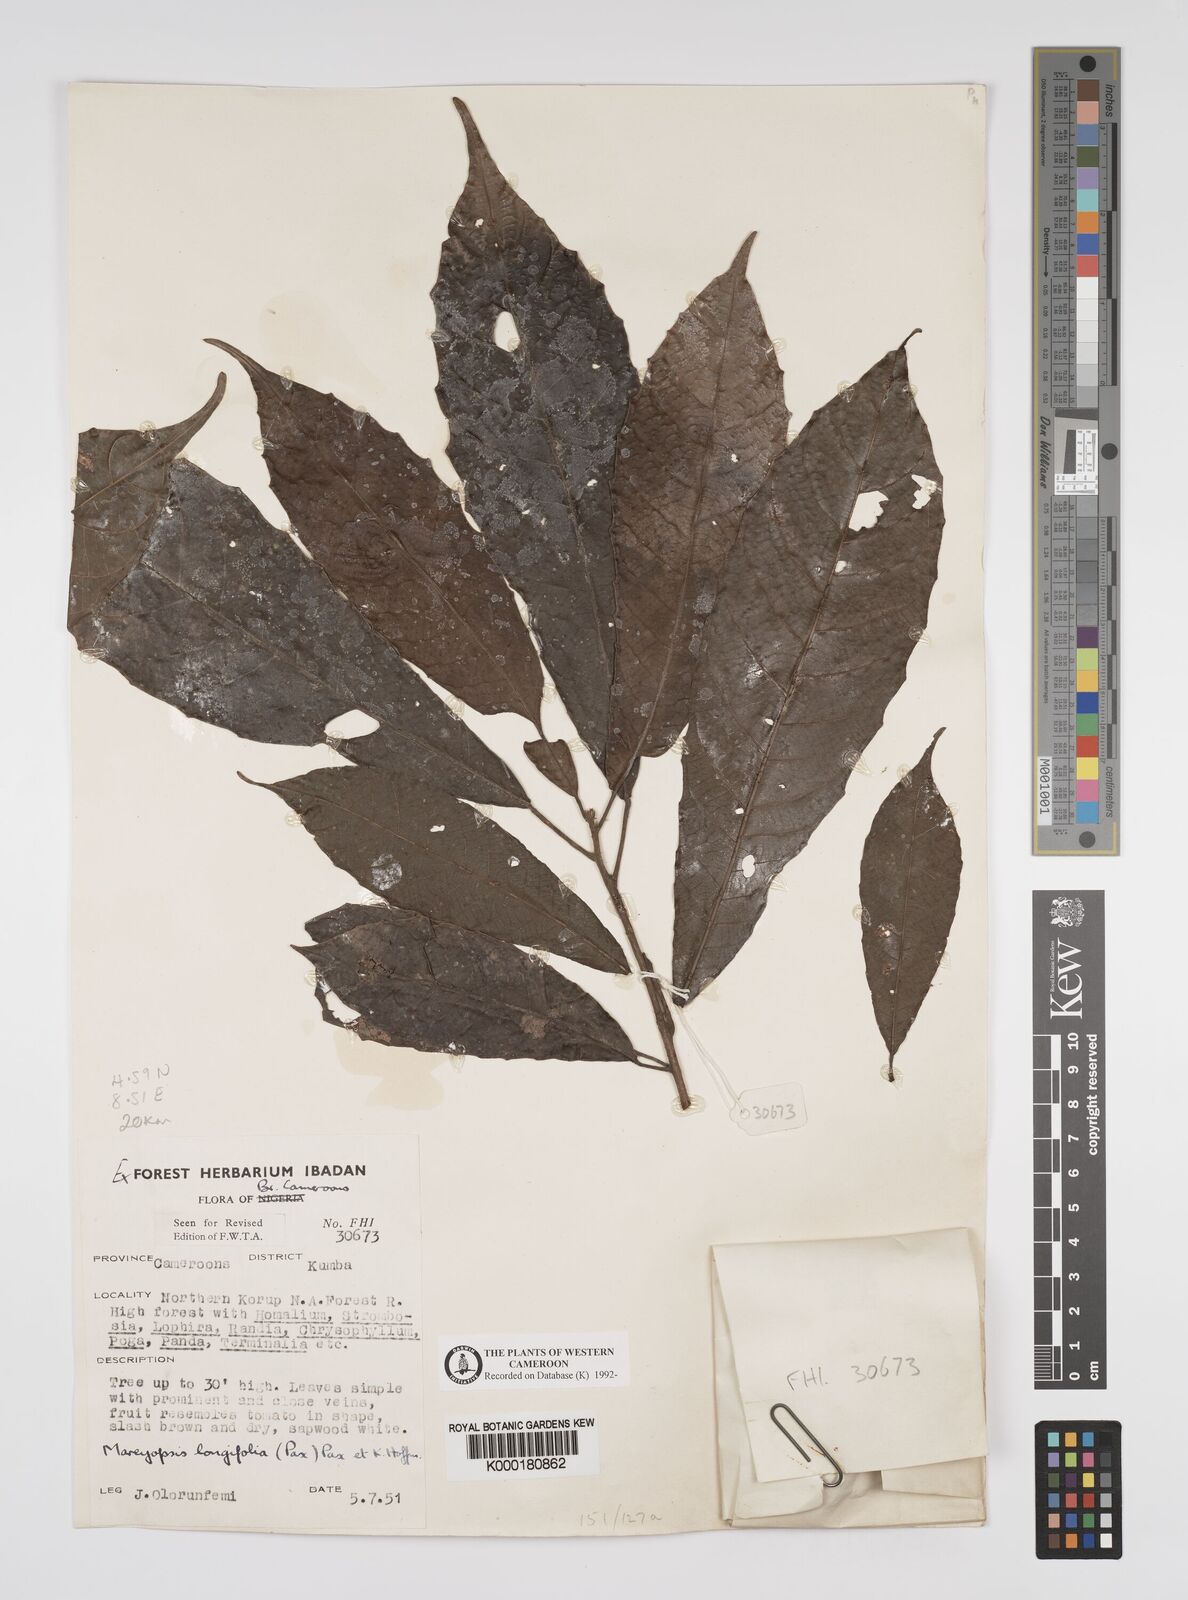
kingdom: Plantae
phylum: Tracheophyta
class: Magnoliopsida
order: Malpighiales
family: Euphorbiaceae
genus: Mareyopsis
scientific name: Mareyopsis longifolia
